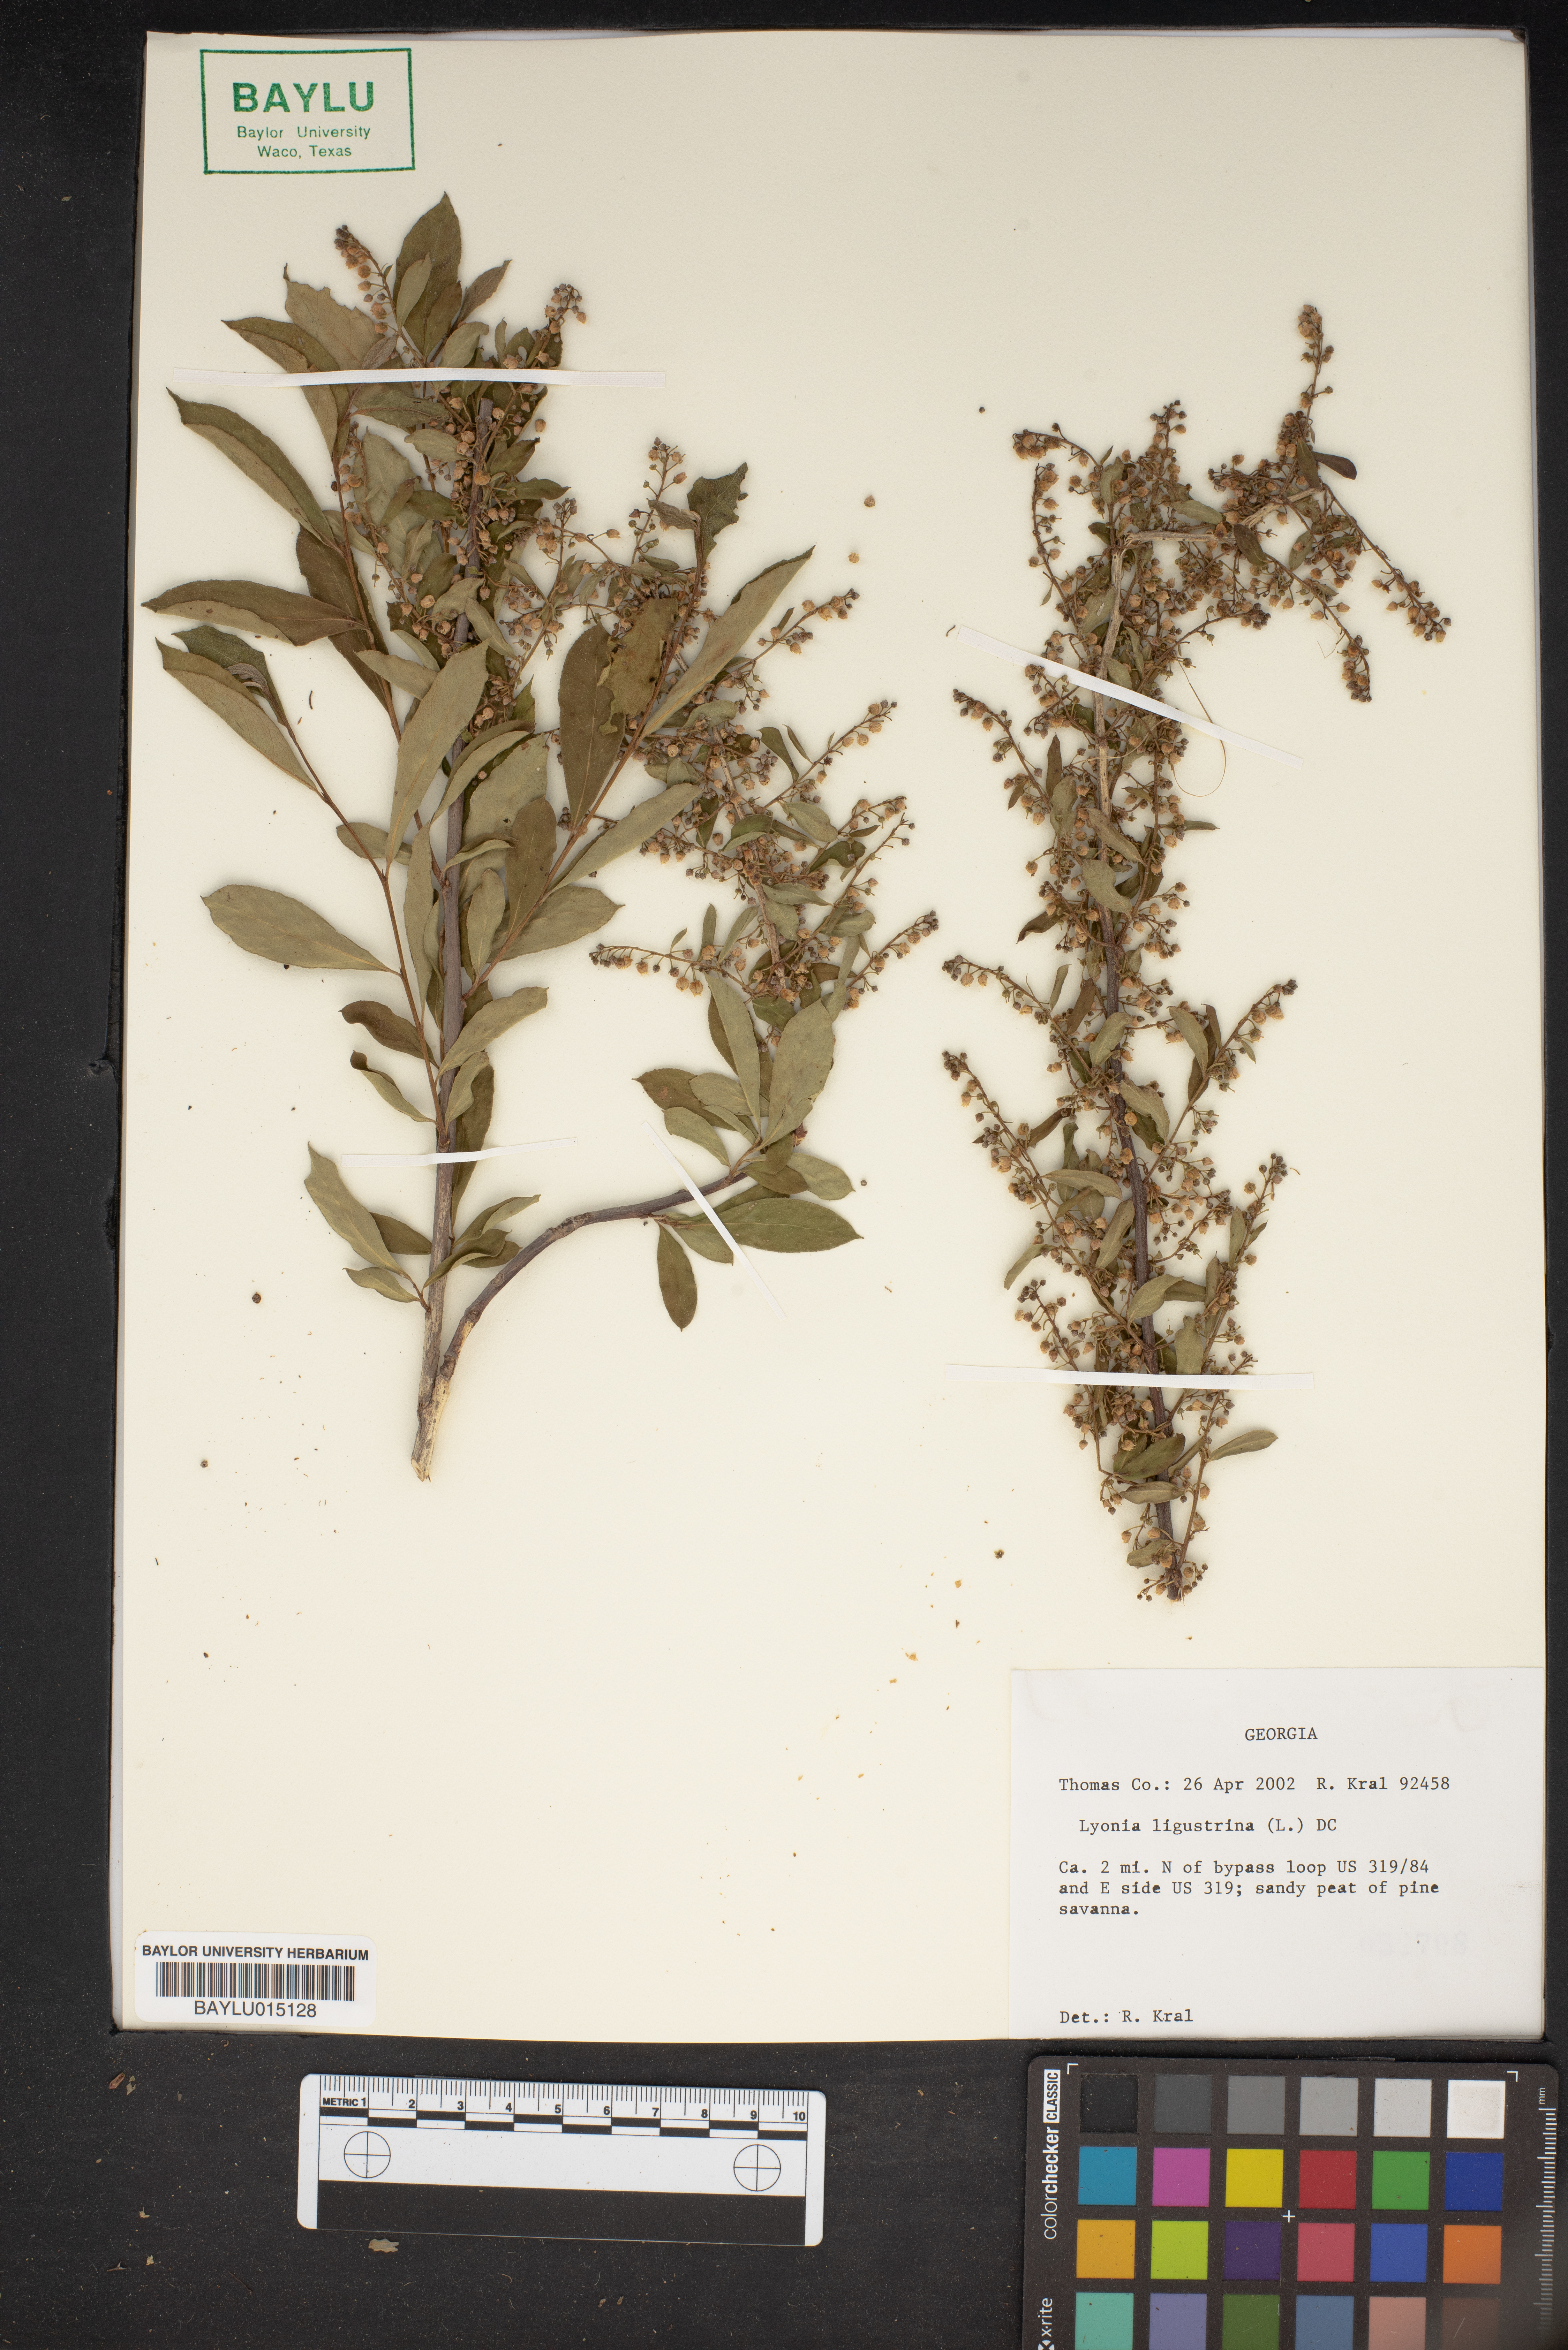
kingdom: Plantae
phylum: Tracheophyta
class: Magnoliopsida
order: Ericales
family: Ericaceae
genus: Lyonia
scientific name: Lyonia ligustrina
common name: Maleberry
